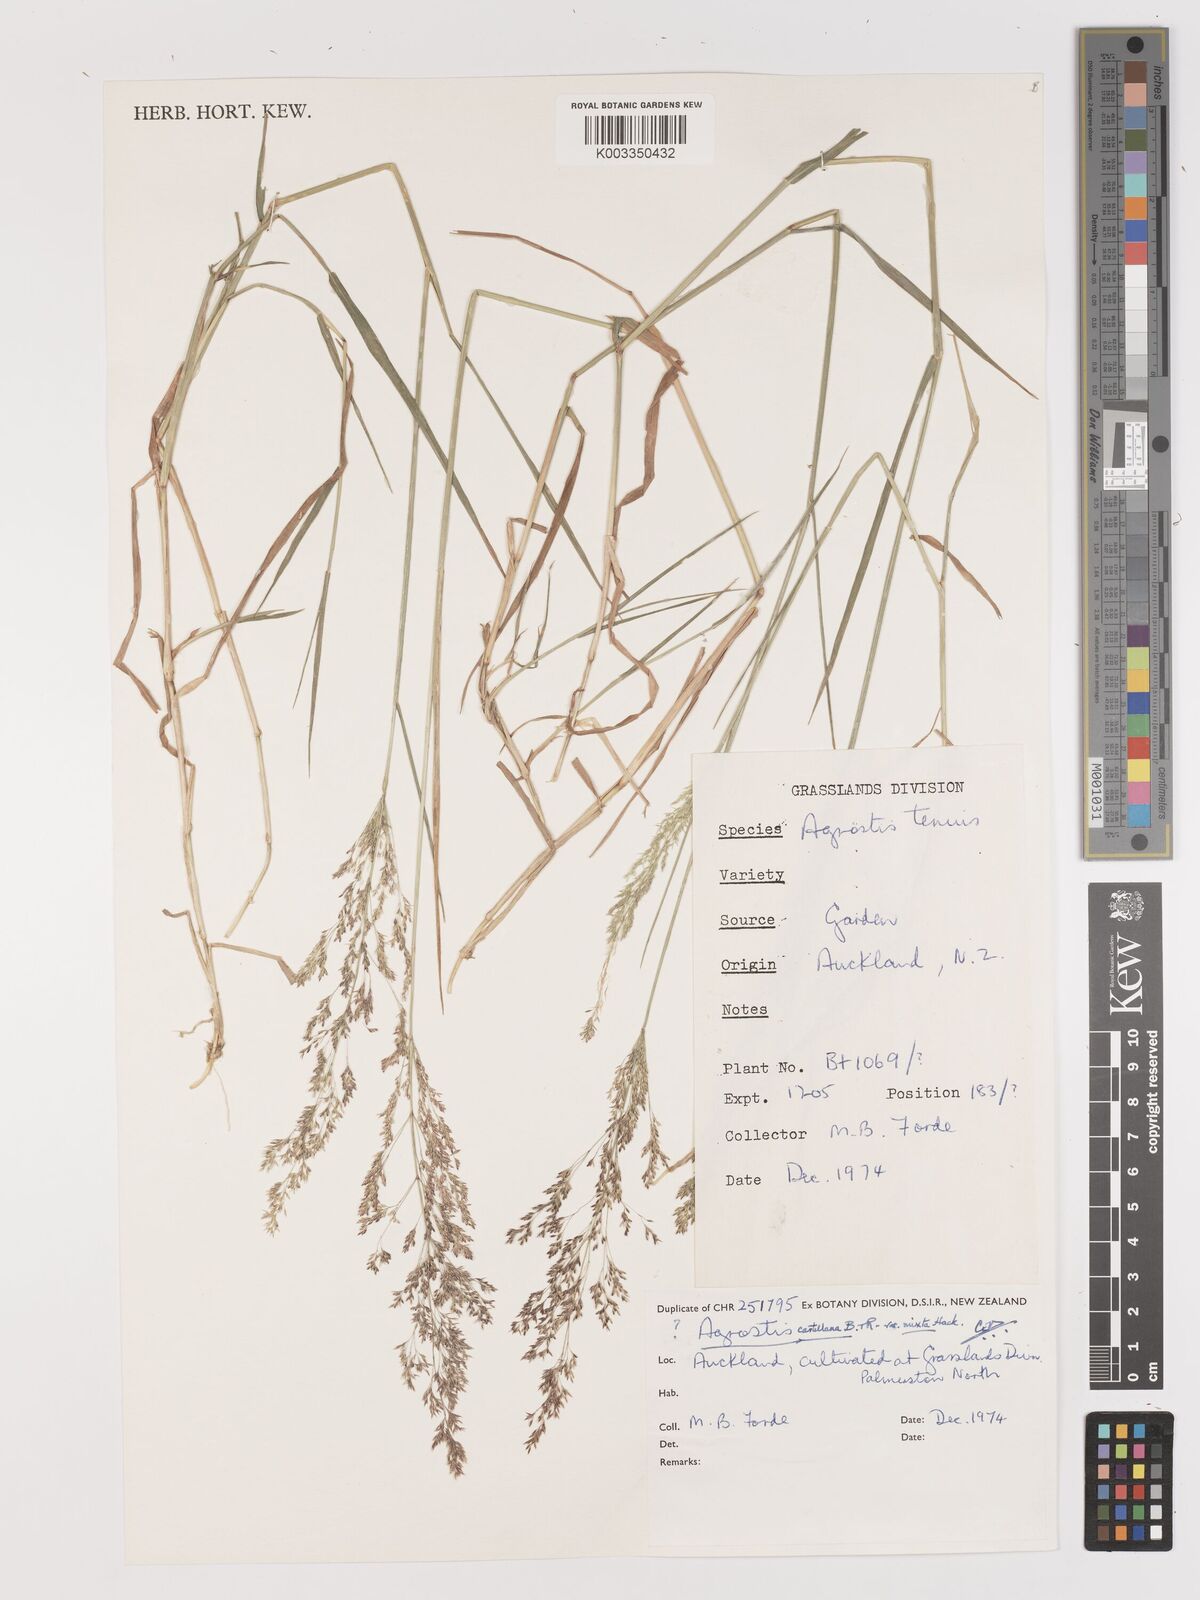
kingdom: Plantae
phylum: Tracheophyta
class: Liliopsida
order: Poales
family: Poaceae
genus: Agrostis
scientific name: Agrostis castellana
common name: Highland bent
